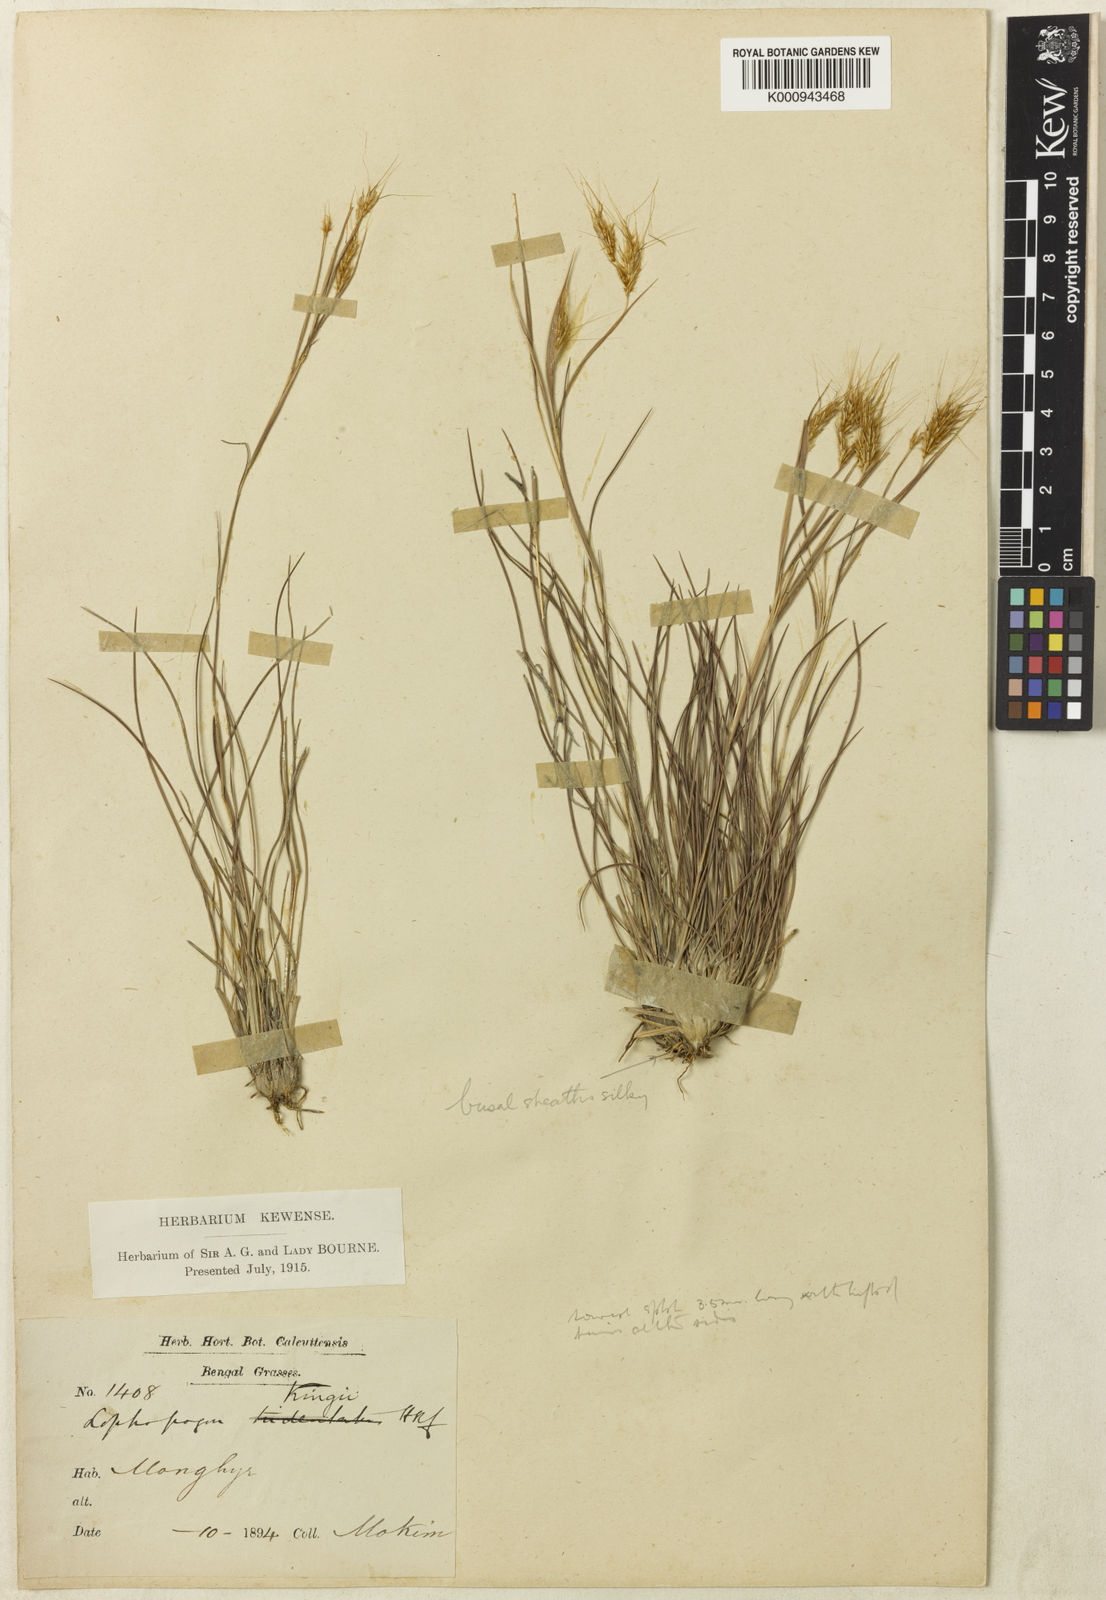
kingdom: Plantae
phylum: Tracheophyta
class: Liliopsida
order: Poales
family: Poaceae
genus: Lophopogon
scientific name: Lophopogon kingii
